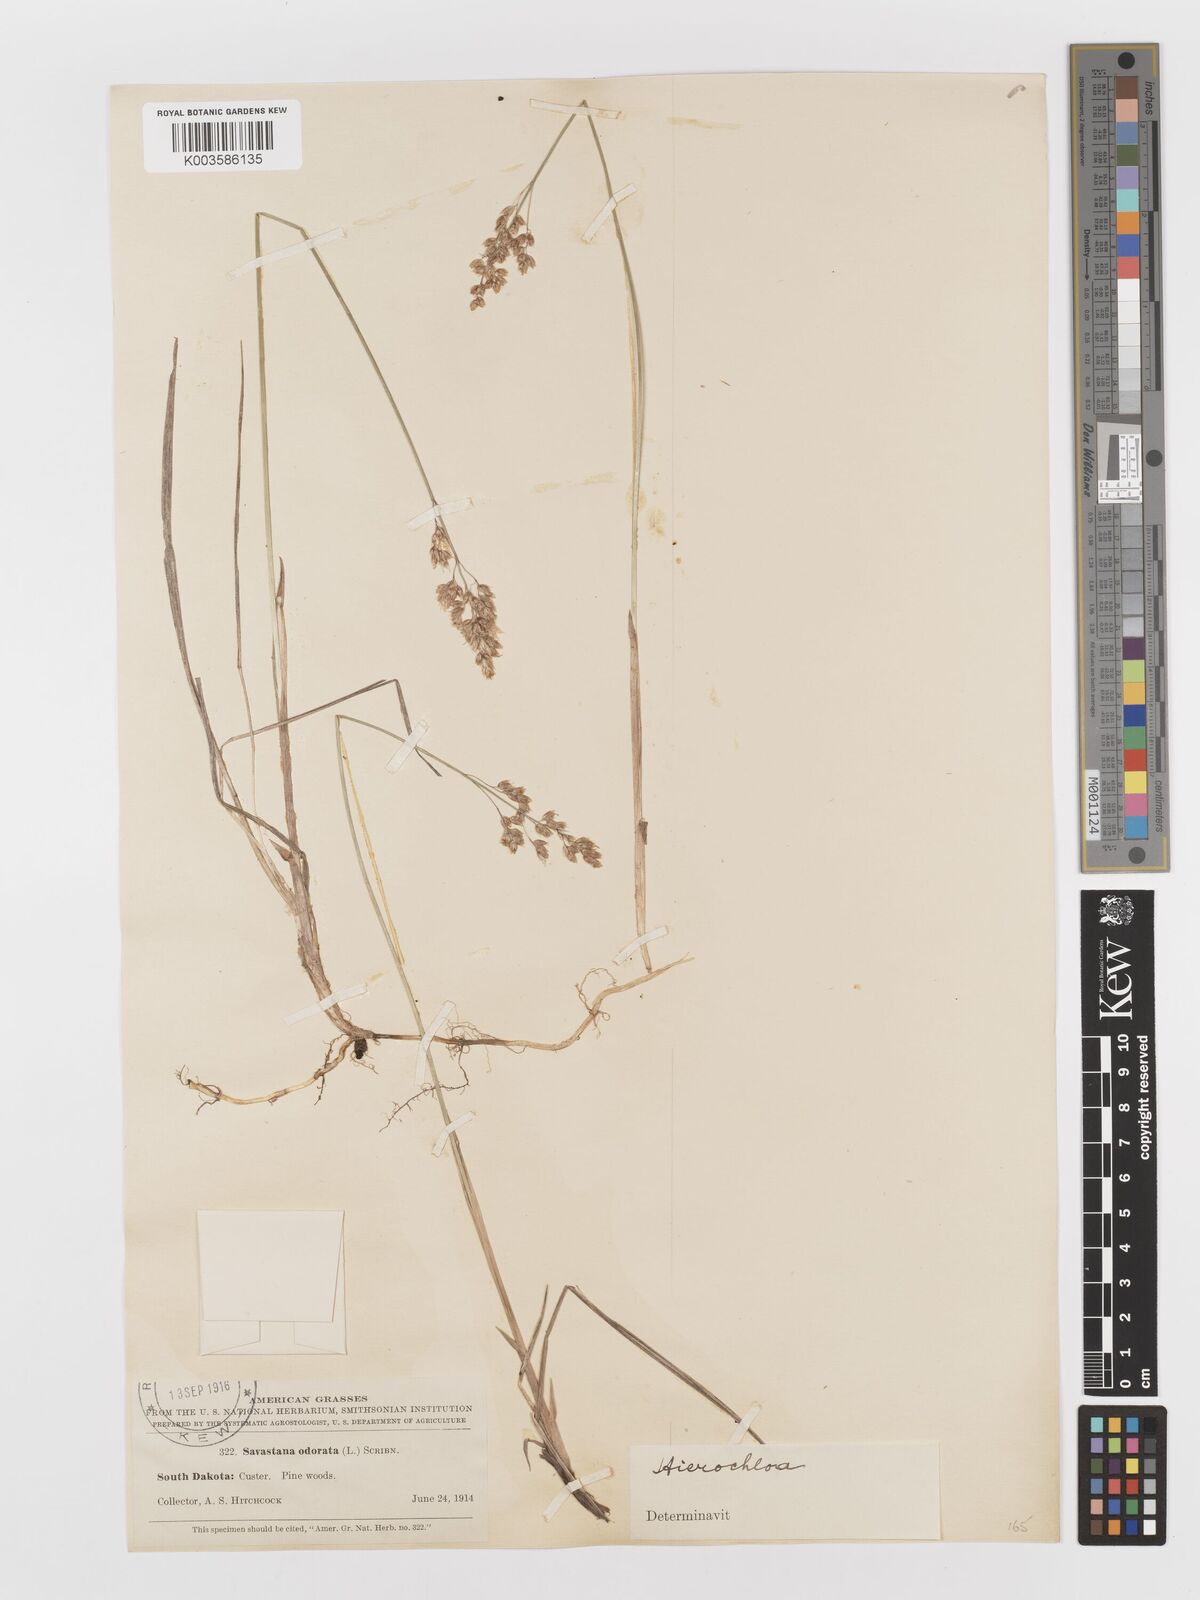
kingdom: Plantae
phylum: Tracheophyta
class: Liliopsida
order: Poales
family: Poaceae
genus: Anthoxanthum
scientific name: Anthoxanthum nitens
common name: Holy grass
